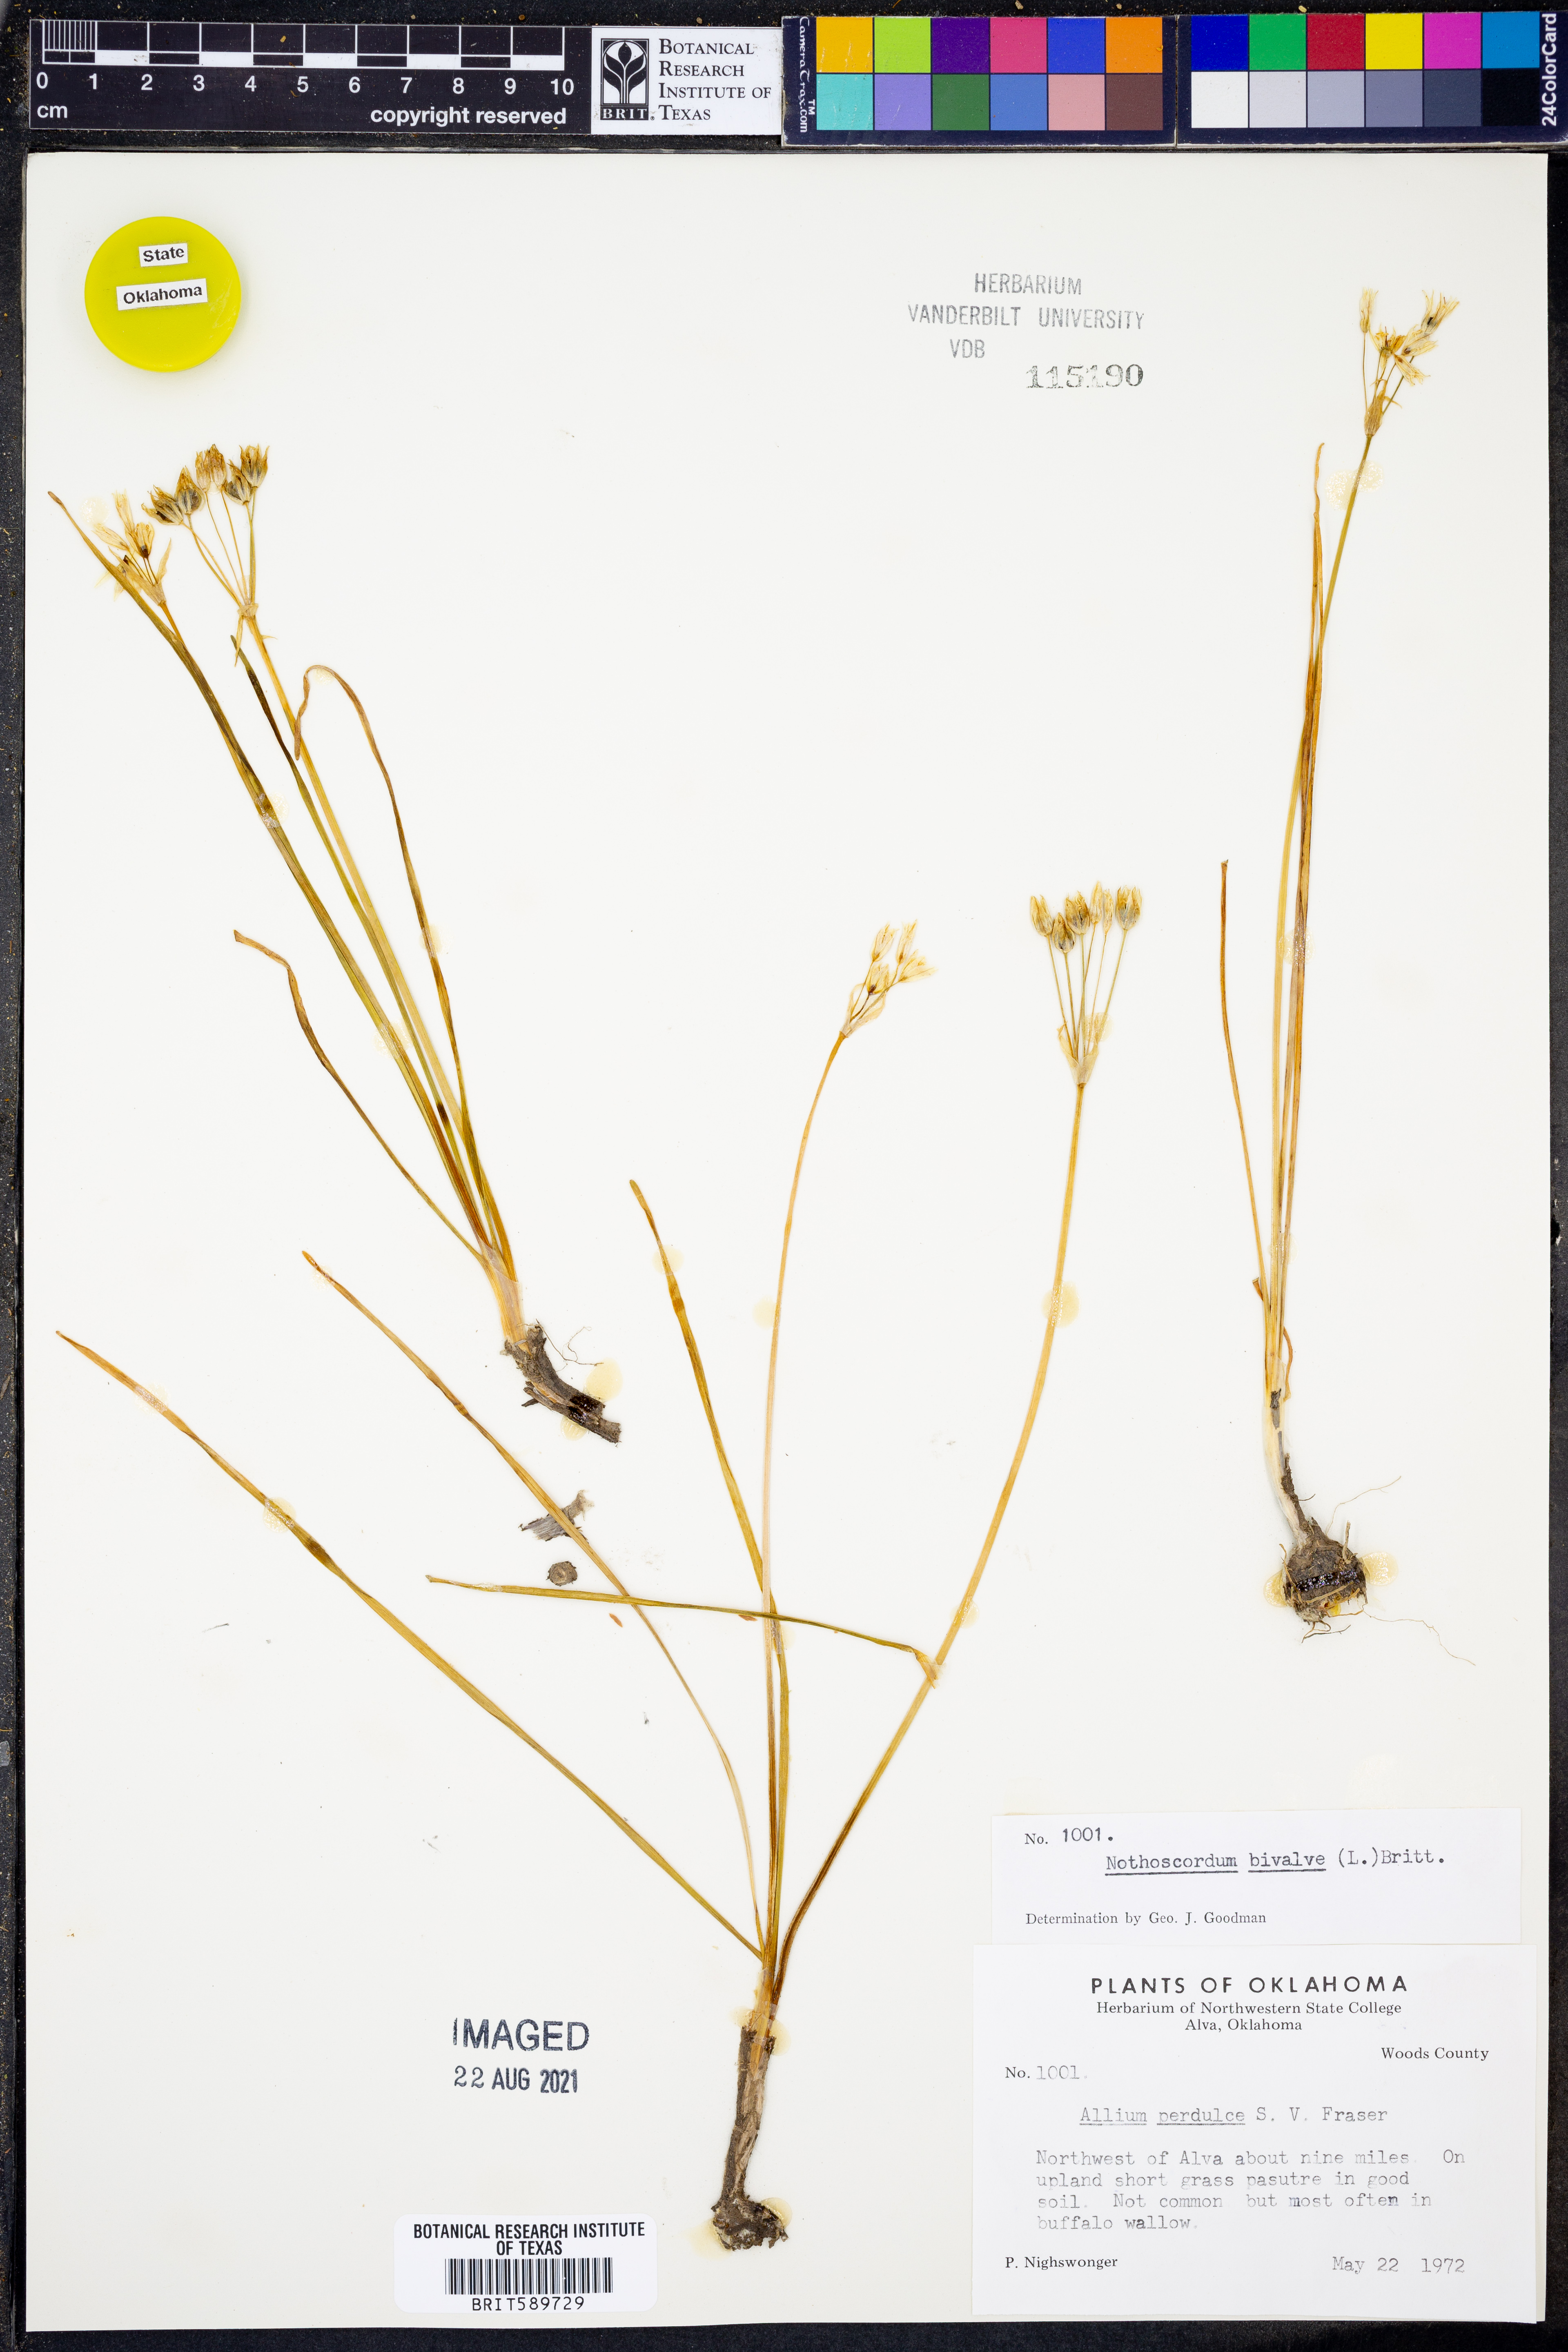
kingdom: Plantae
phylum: Tracheophyta
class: Liliopsida
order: Asparagales
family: Amaryllidaceae
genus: Nothoscordum
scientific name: Nothoscordum bivalve
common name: Crow-poison
